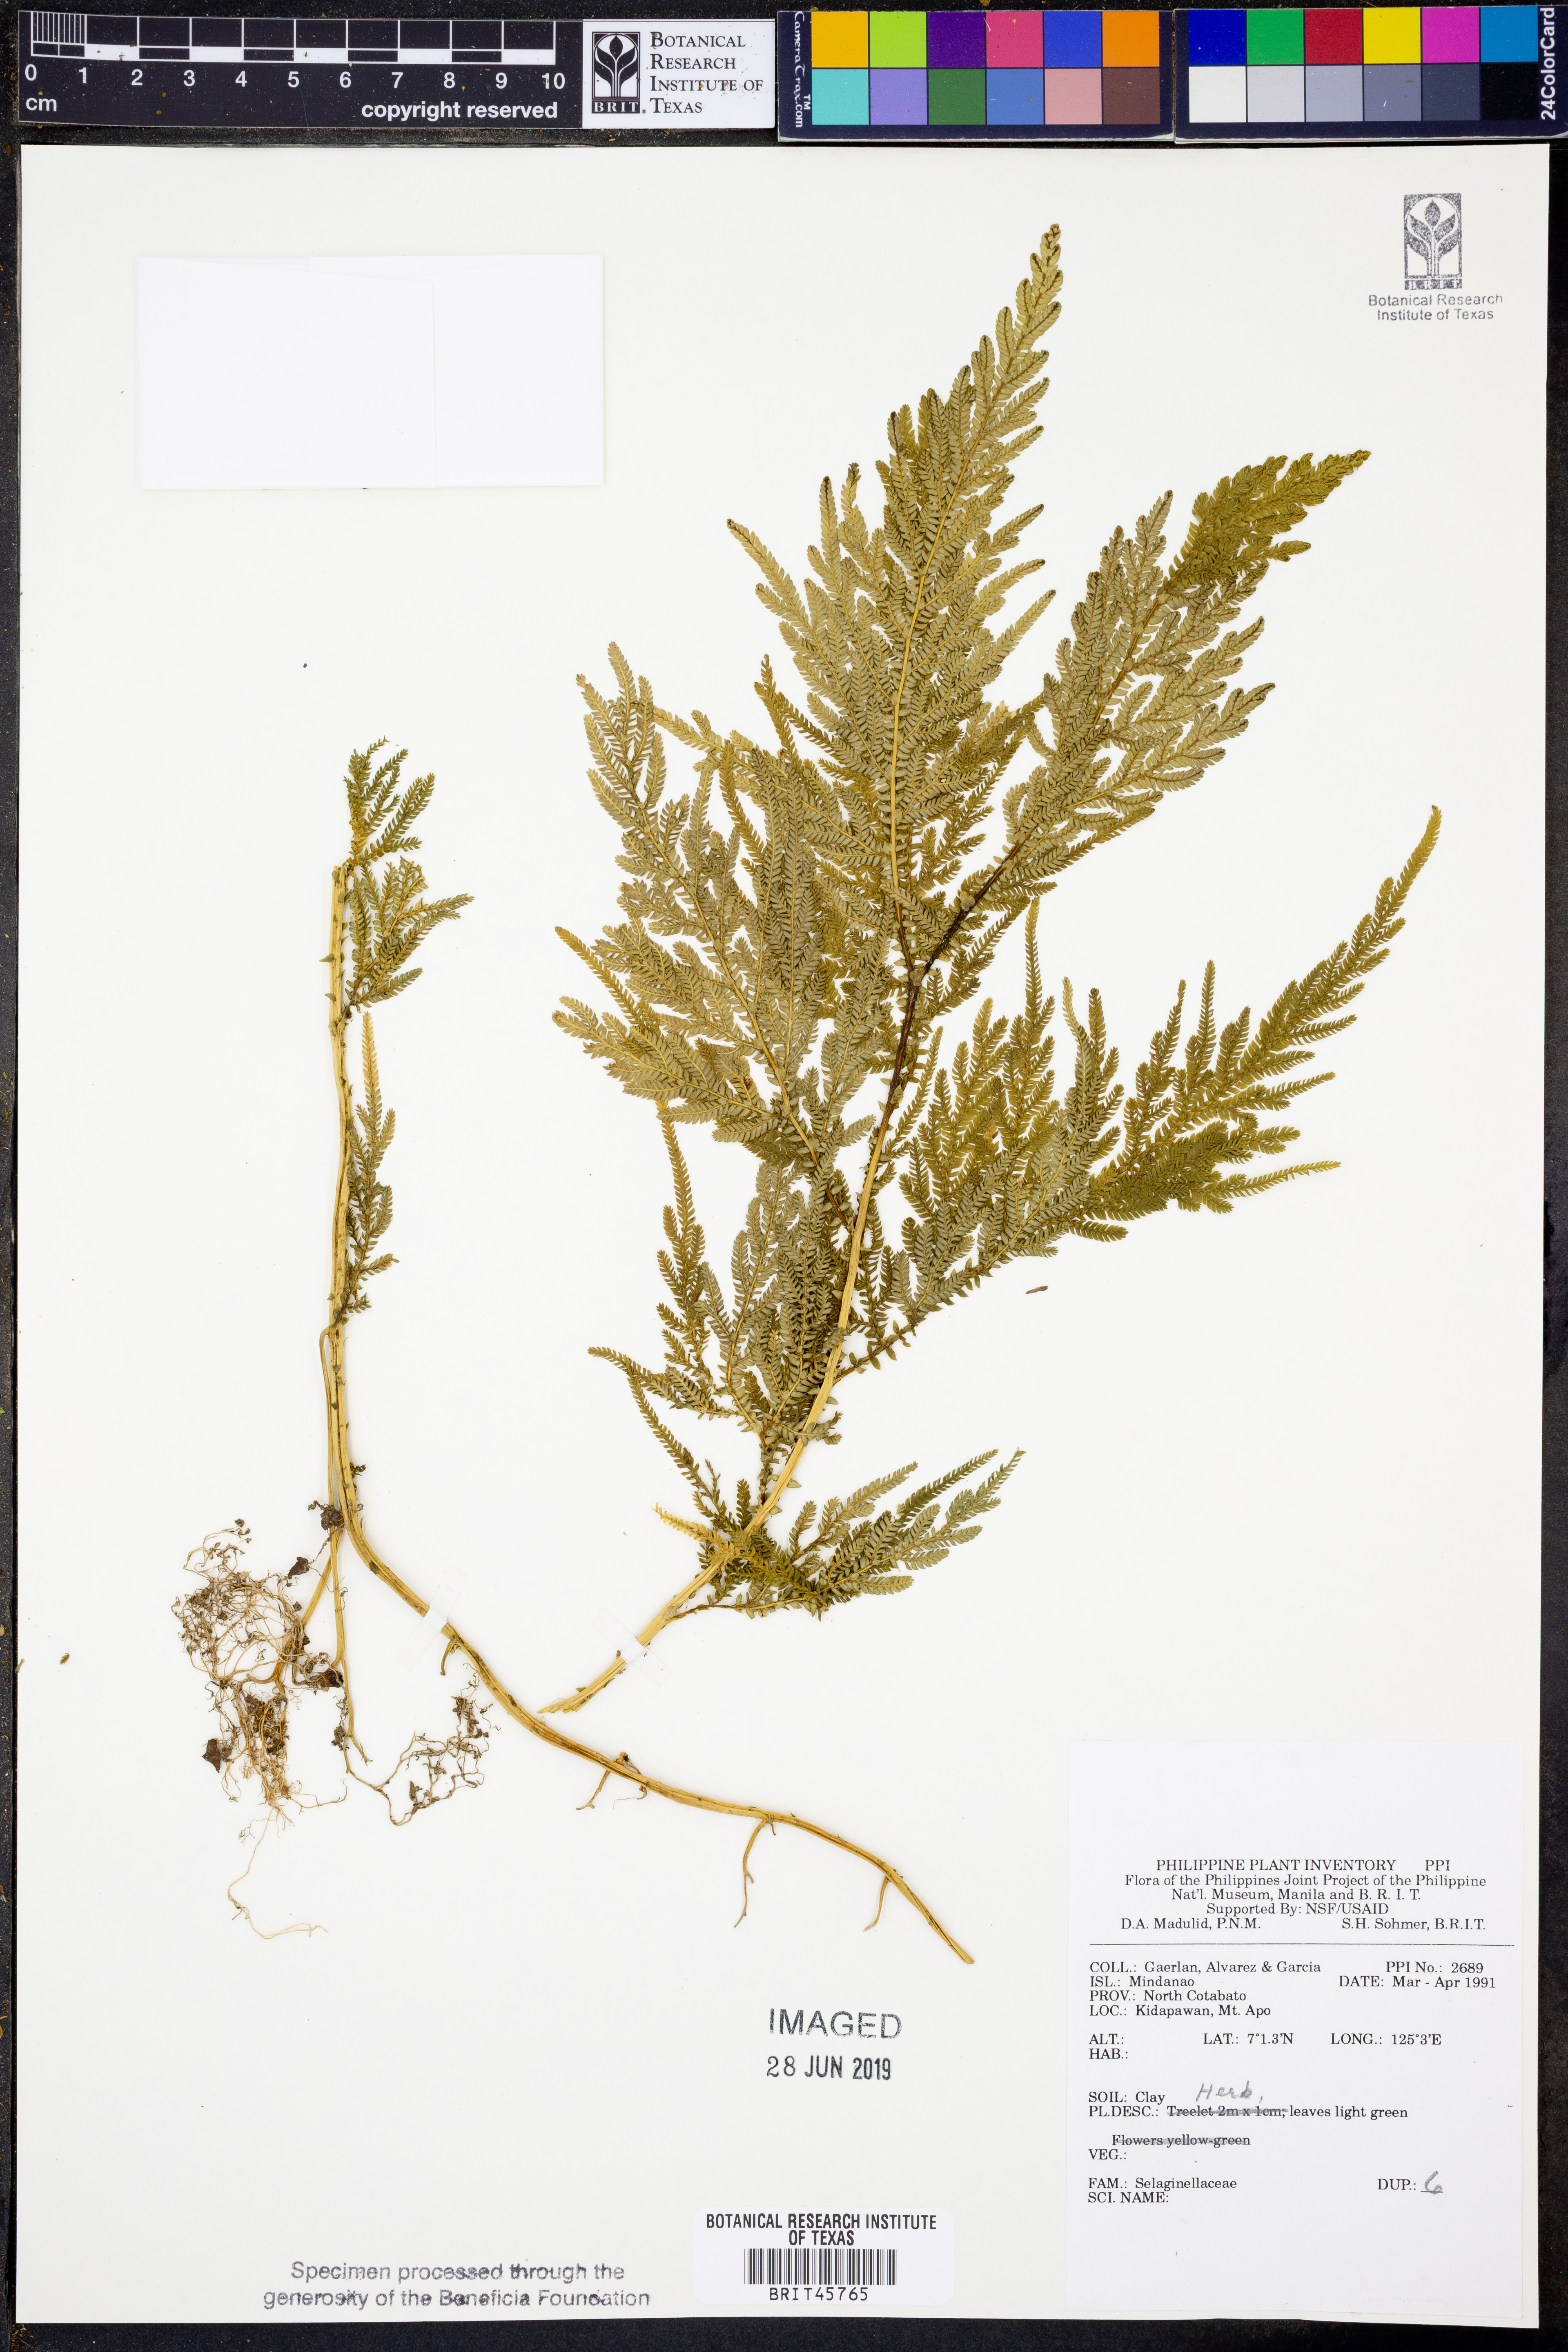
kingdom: Plantae
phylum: Tracheophyta
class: Lycopodiopsida
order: Selaginellales
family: Selaginellaceae
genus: Selaginella
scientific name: Selaginella
